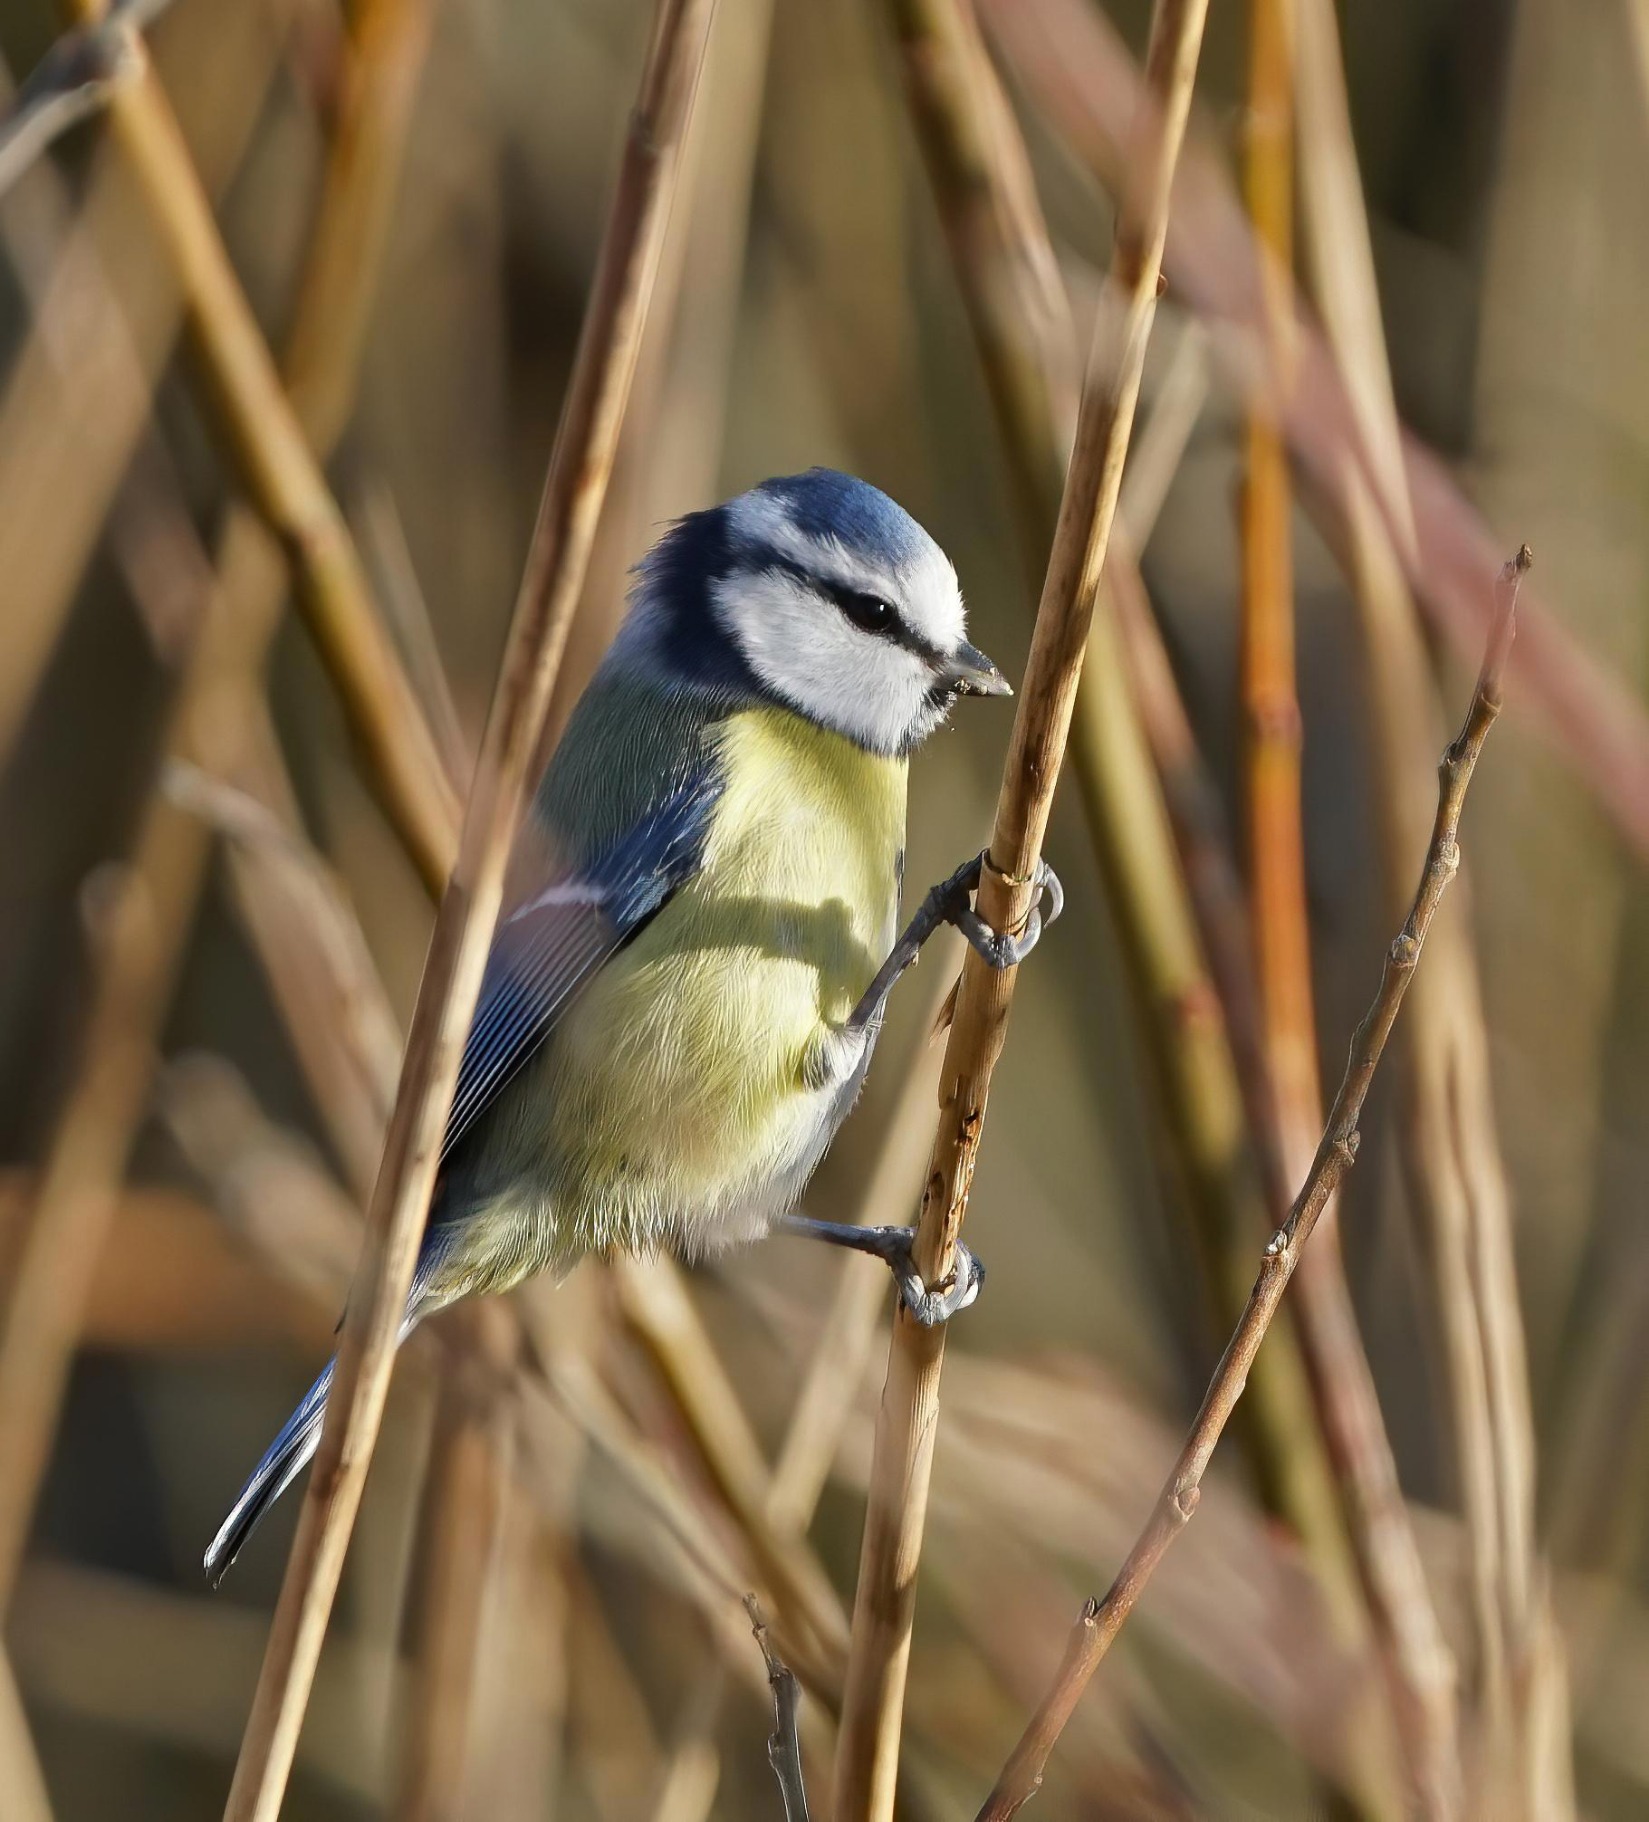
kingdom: Animalia
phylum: Chordata
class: Aves
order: Passeriformes
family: Paridae
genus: Cyanistes
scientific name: Cyanistes caeruleus
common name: Blåmejse
